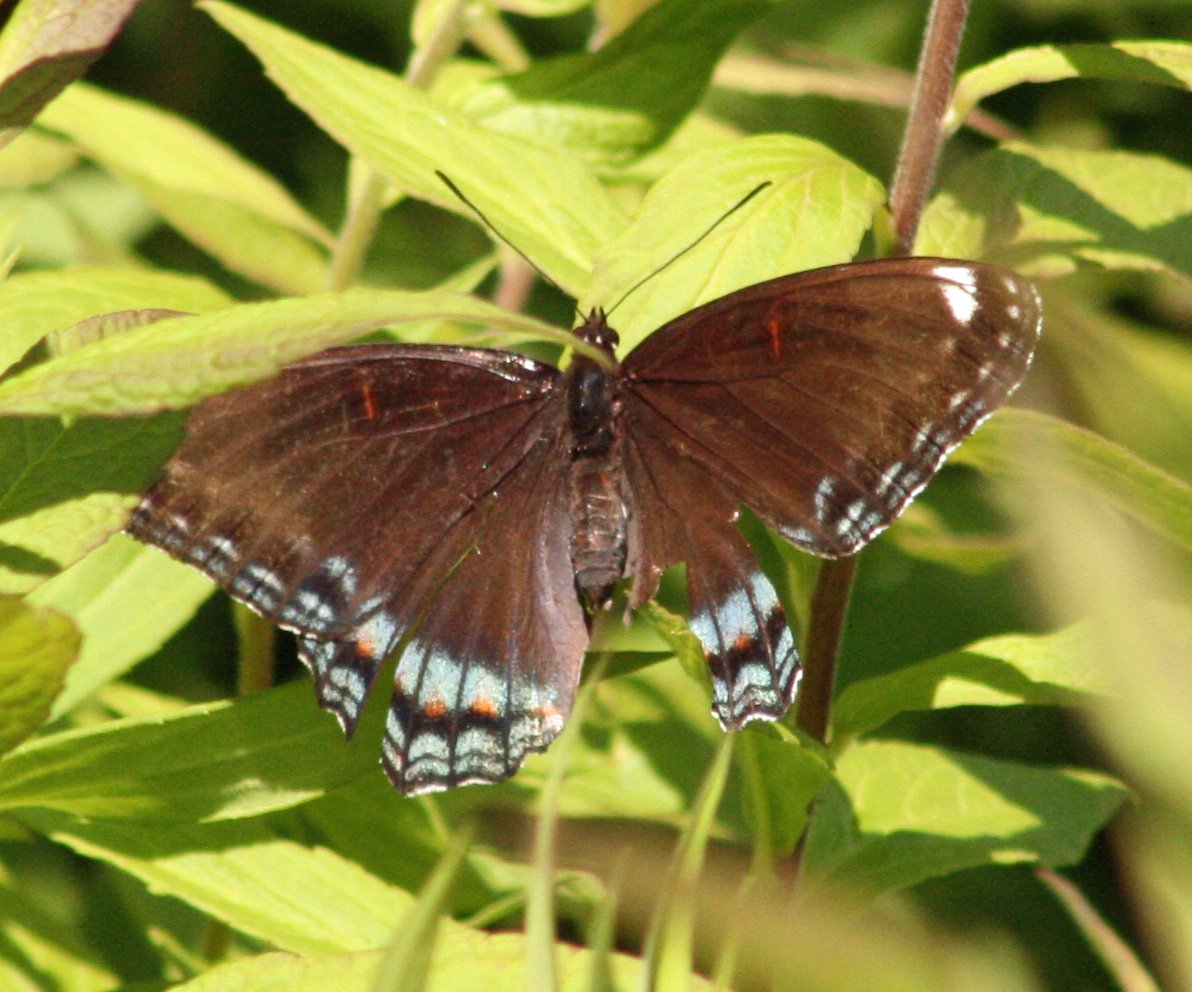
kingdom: Animalia
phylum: Arthropoda
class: Insecta
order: Lepidoptera
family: Nymphalidae
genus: Limenitis
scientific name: Limenitis astyanax
